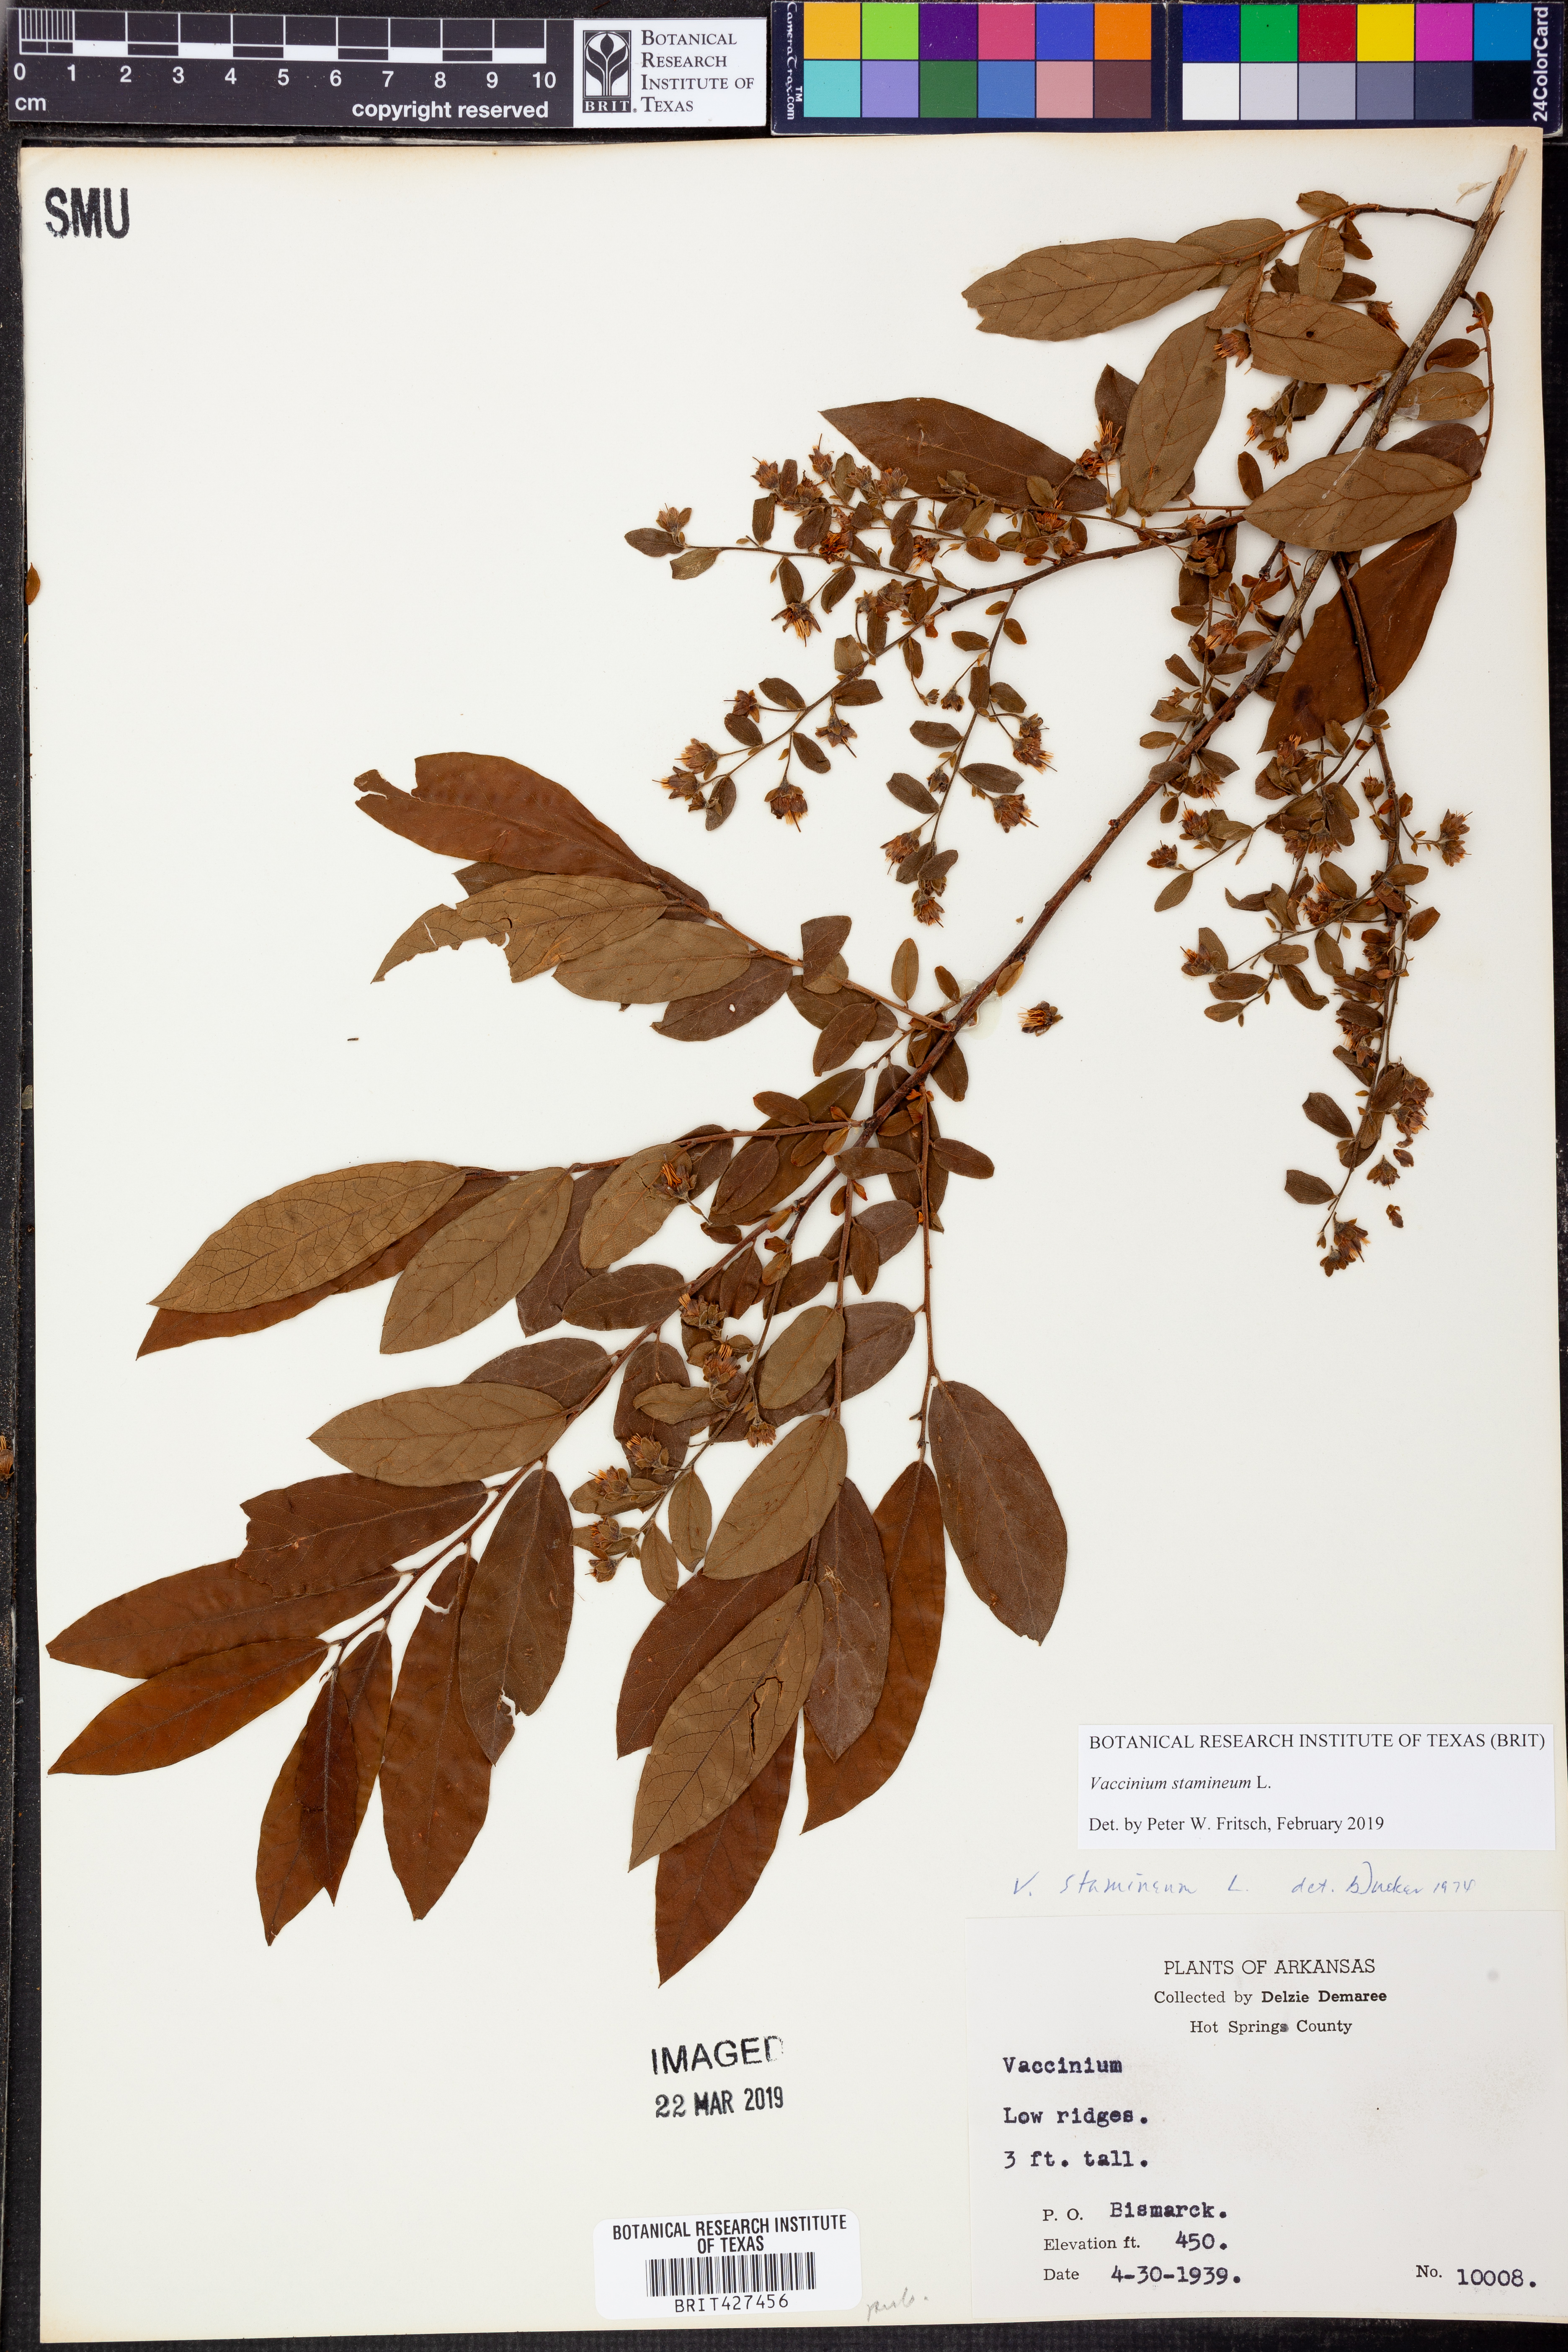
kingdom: Plantae
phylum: Tracheophyta
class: Magnoliopsida
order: Ericales
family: Ericaceae
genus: Vaccinium
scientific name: Vaccinium stamineum
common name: Deerberry
